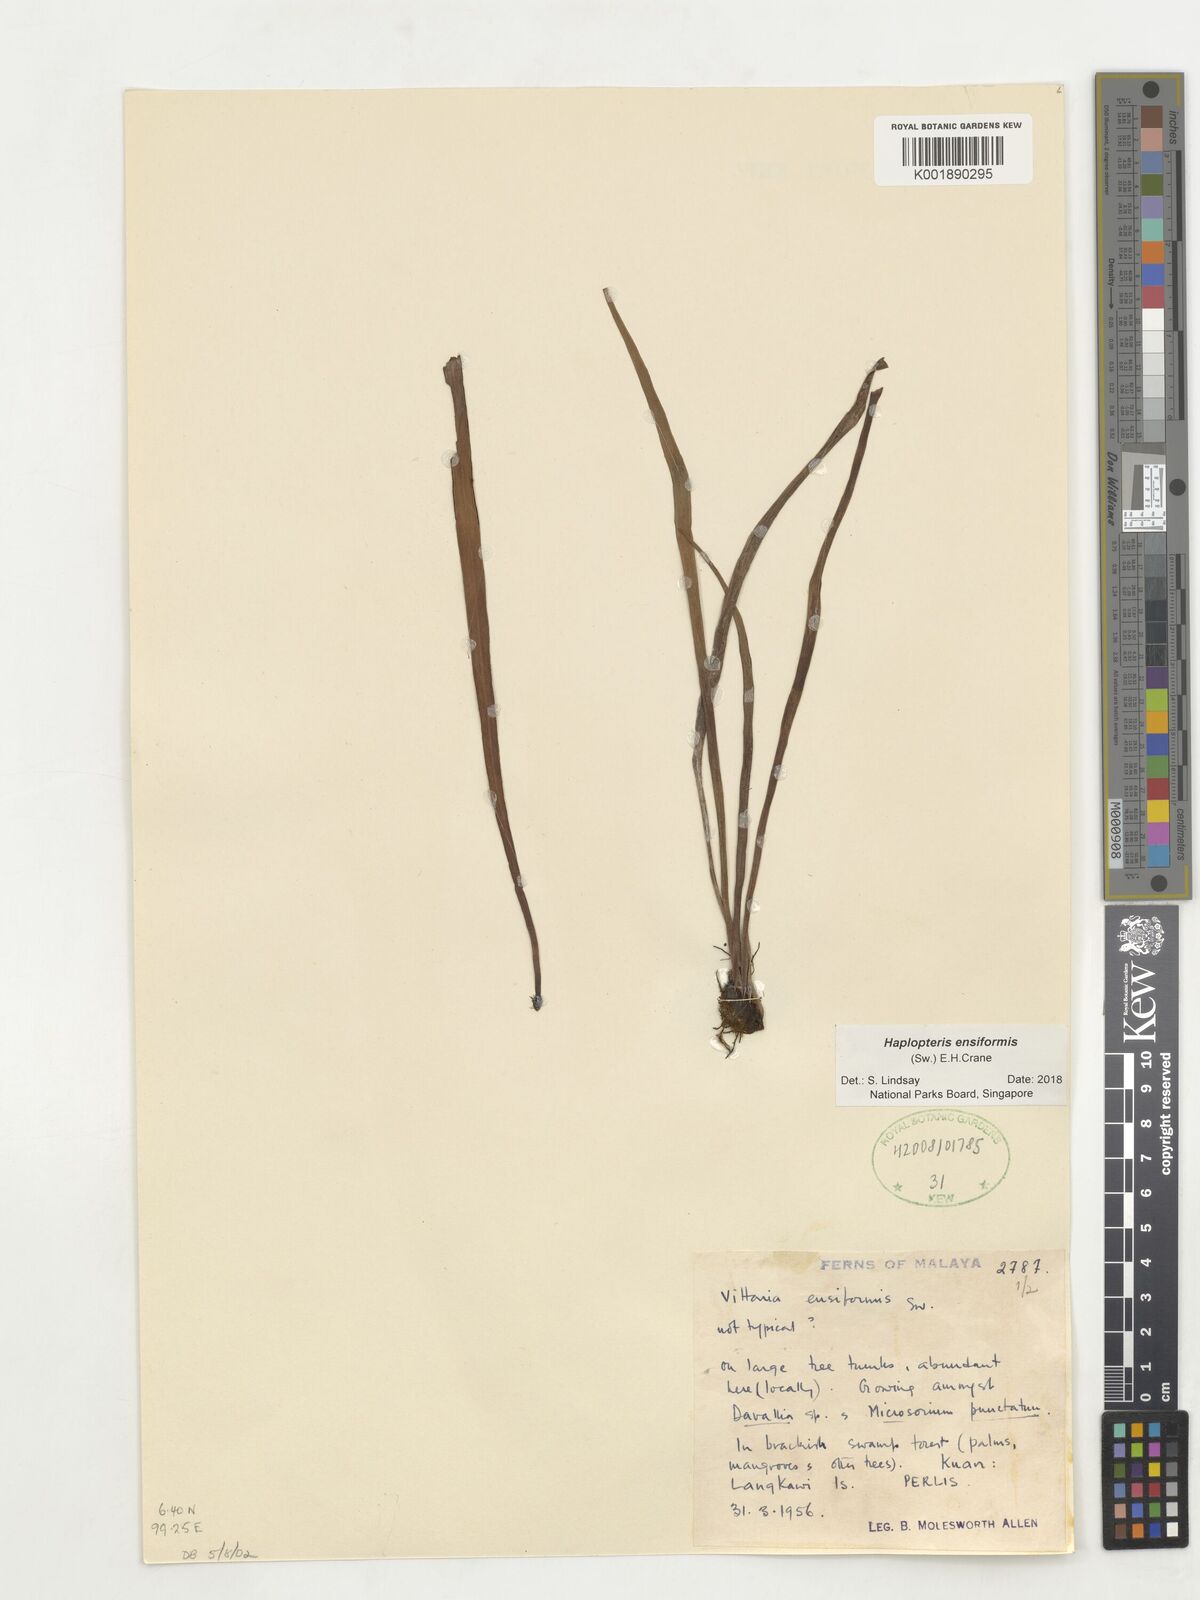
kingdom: Plantae
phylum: Tracheophyta
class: Polypodiopsida
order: Polypodiales
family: Pteridaceae
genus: Haplopteris
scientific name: Haplopteris ensiformis
